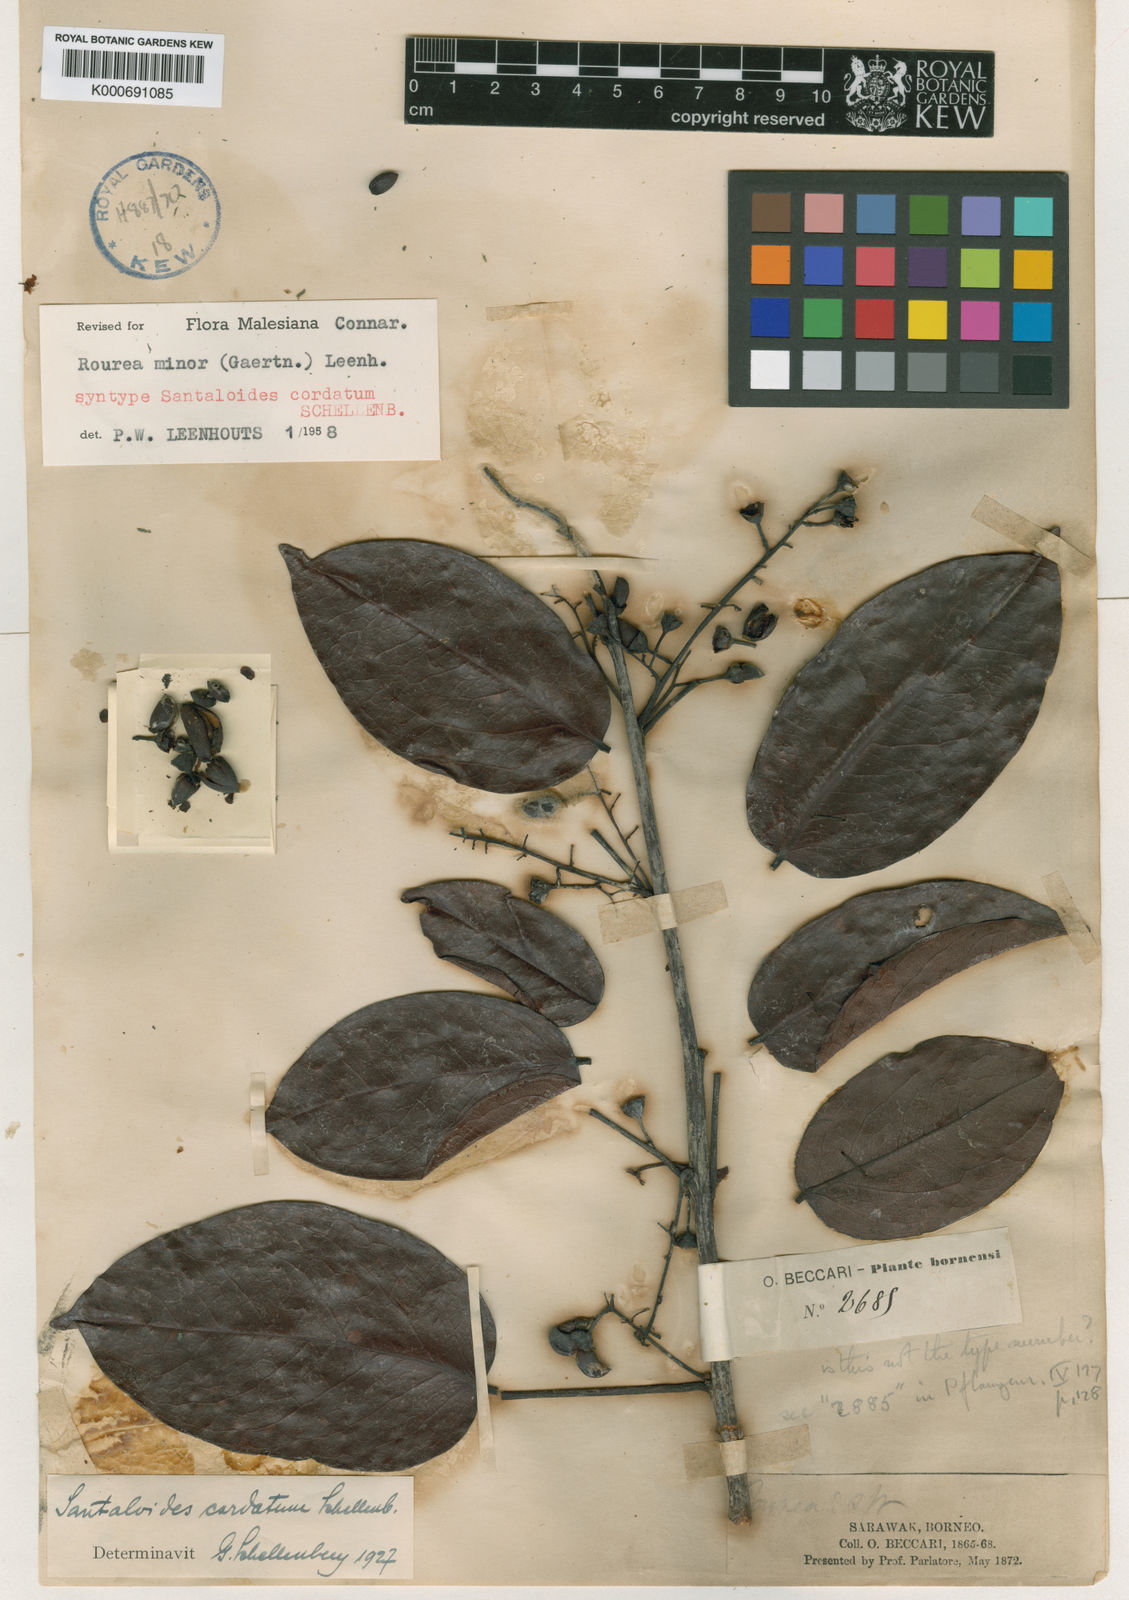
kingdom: Plantae
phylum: Tracheophyta
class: Magnoliopsida
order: Oxalidales
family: Connaraceae
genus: Rourea
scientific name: Rourea
